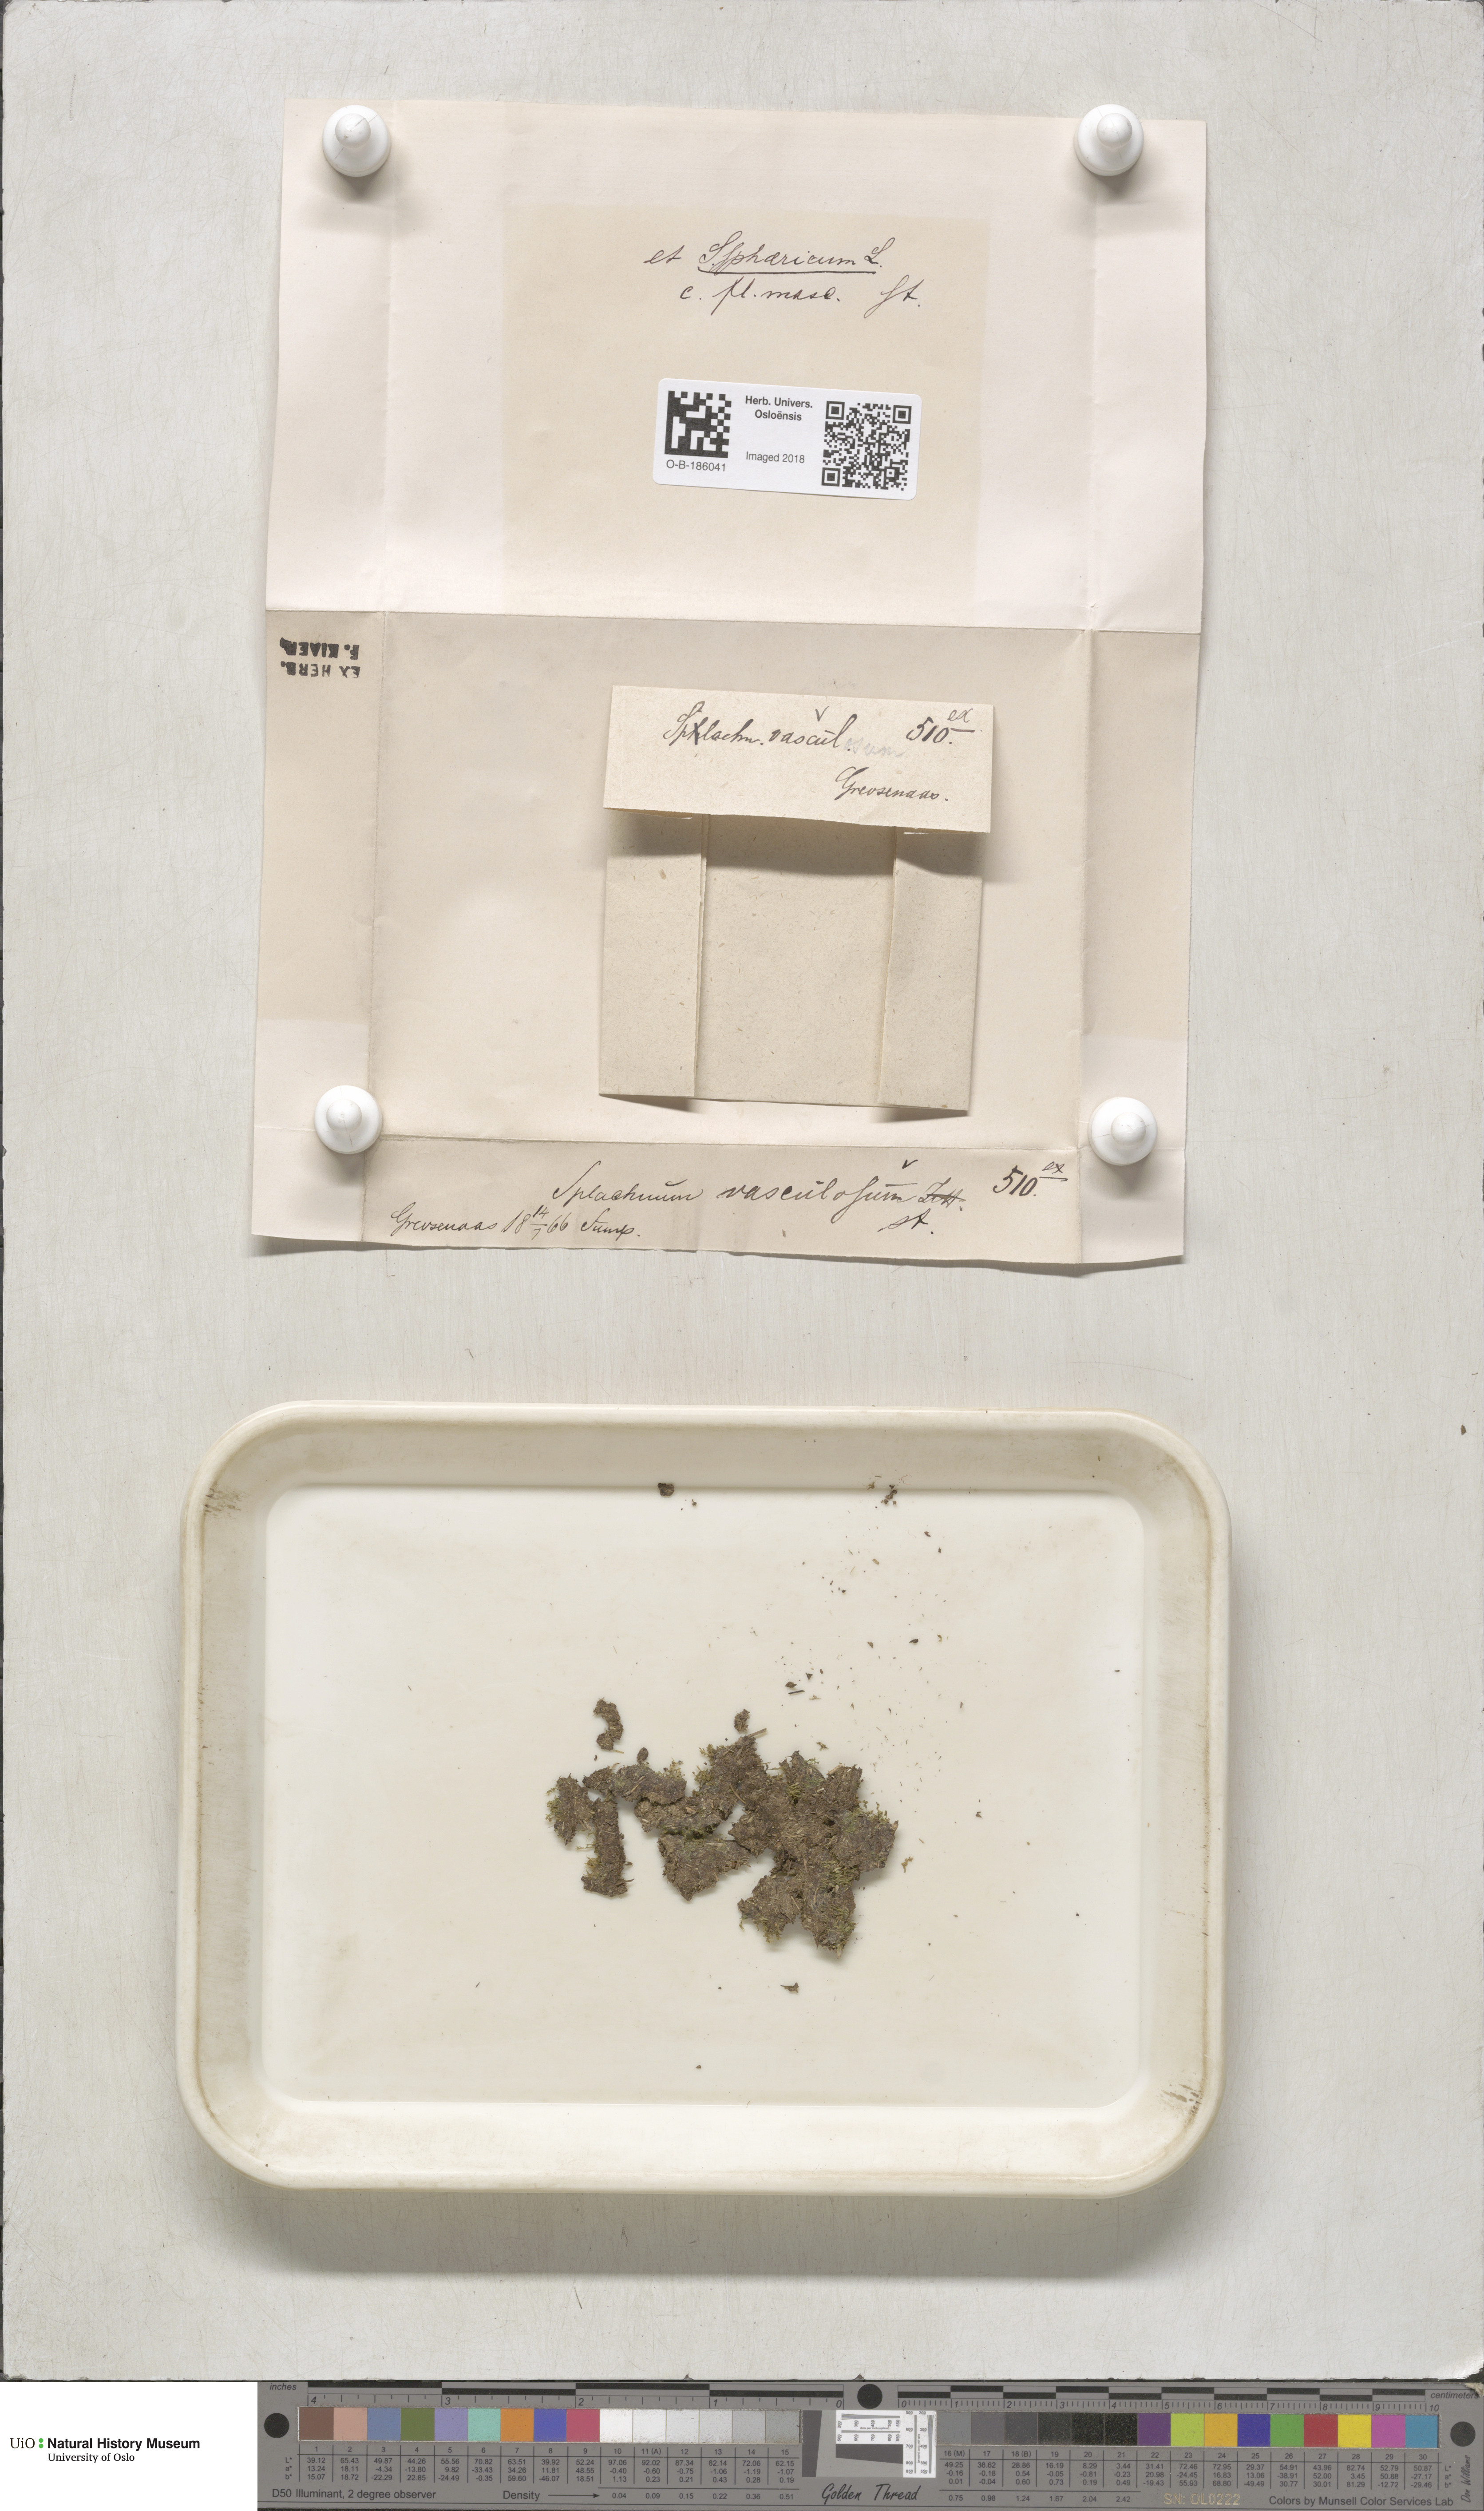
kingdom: Plantae
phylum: Bryophyta
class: Bryopsida
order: Splachnales
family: Splachnaceae
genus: Splachnum
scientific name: Splachnum sphaericum
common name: Round-fruited dung moss
